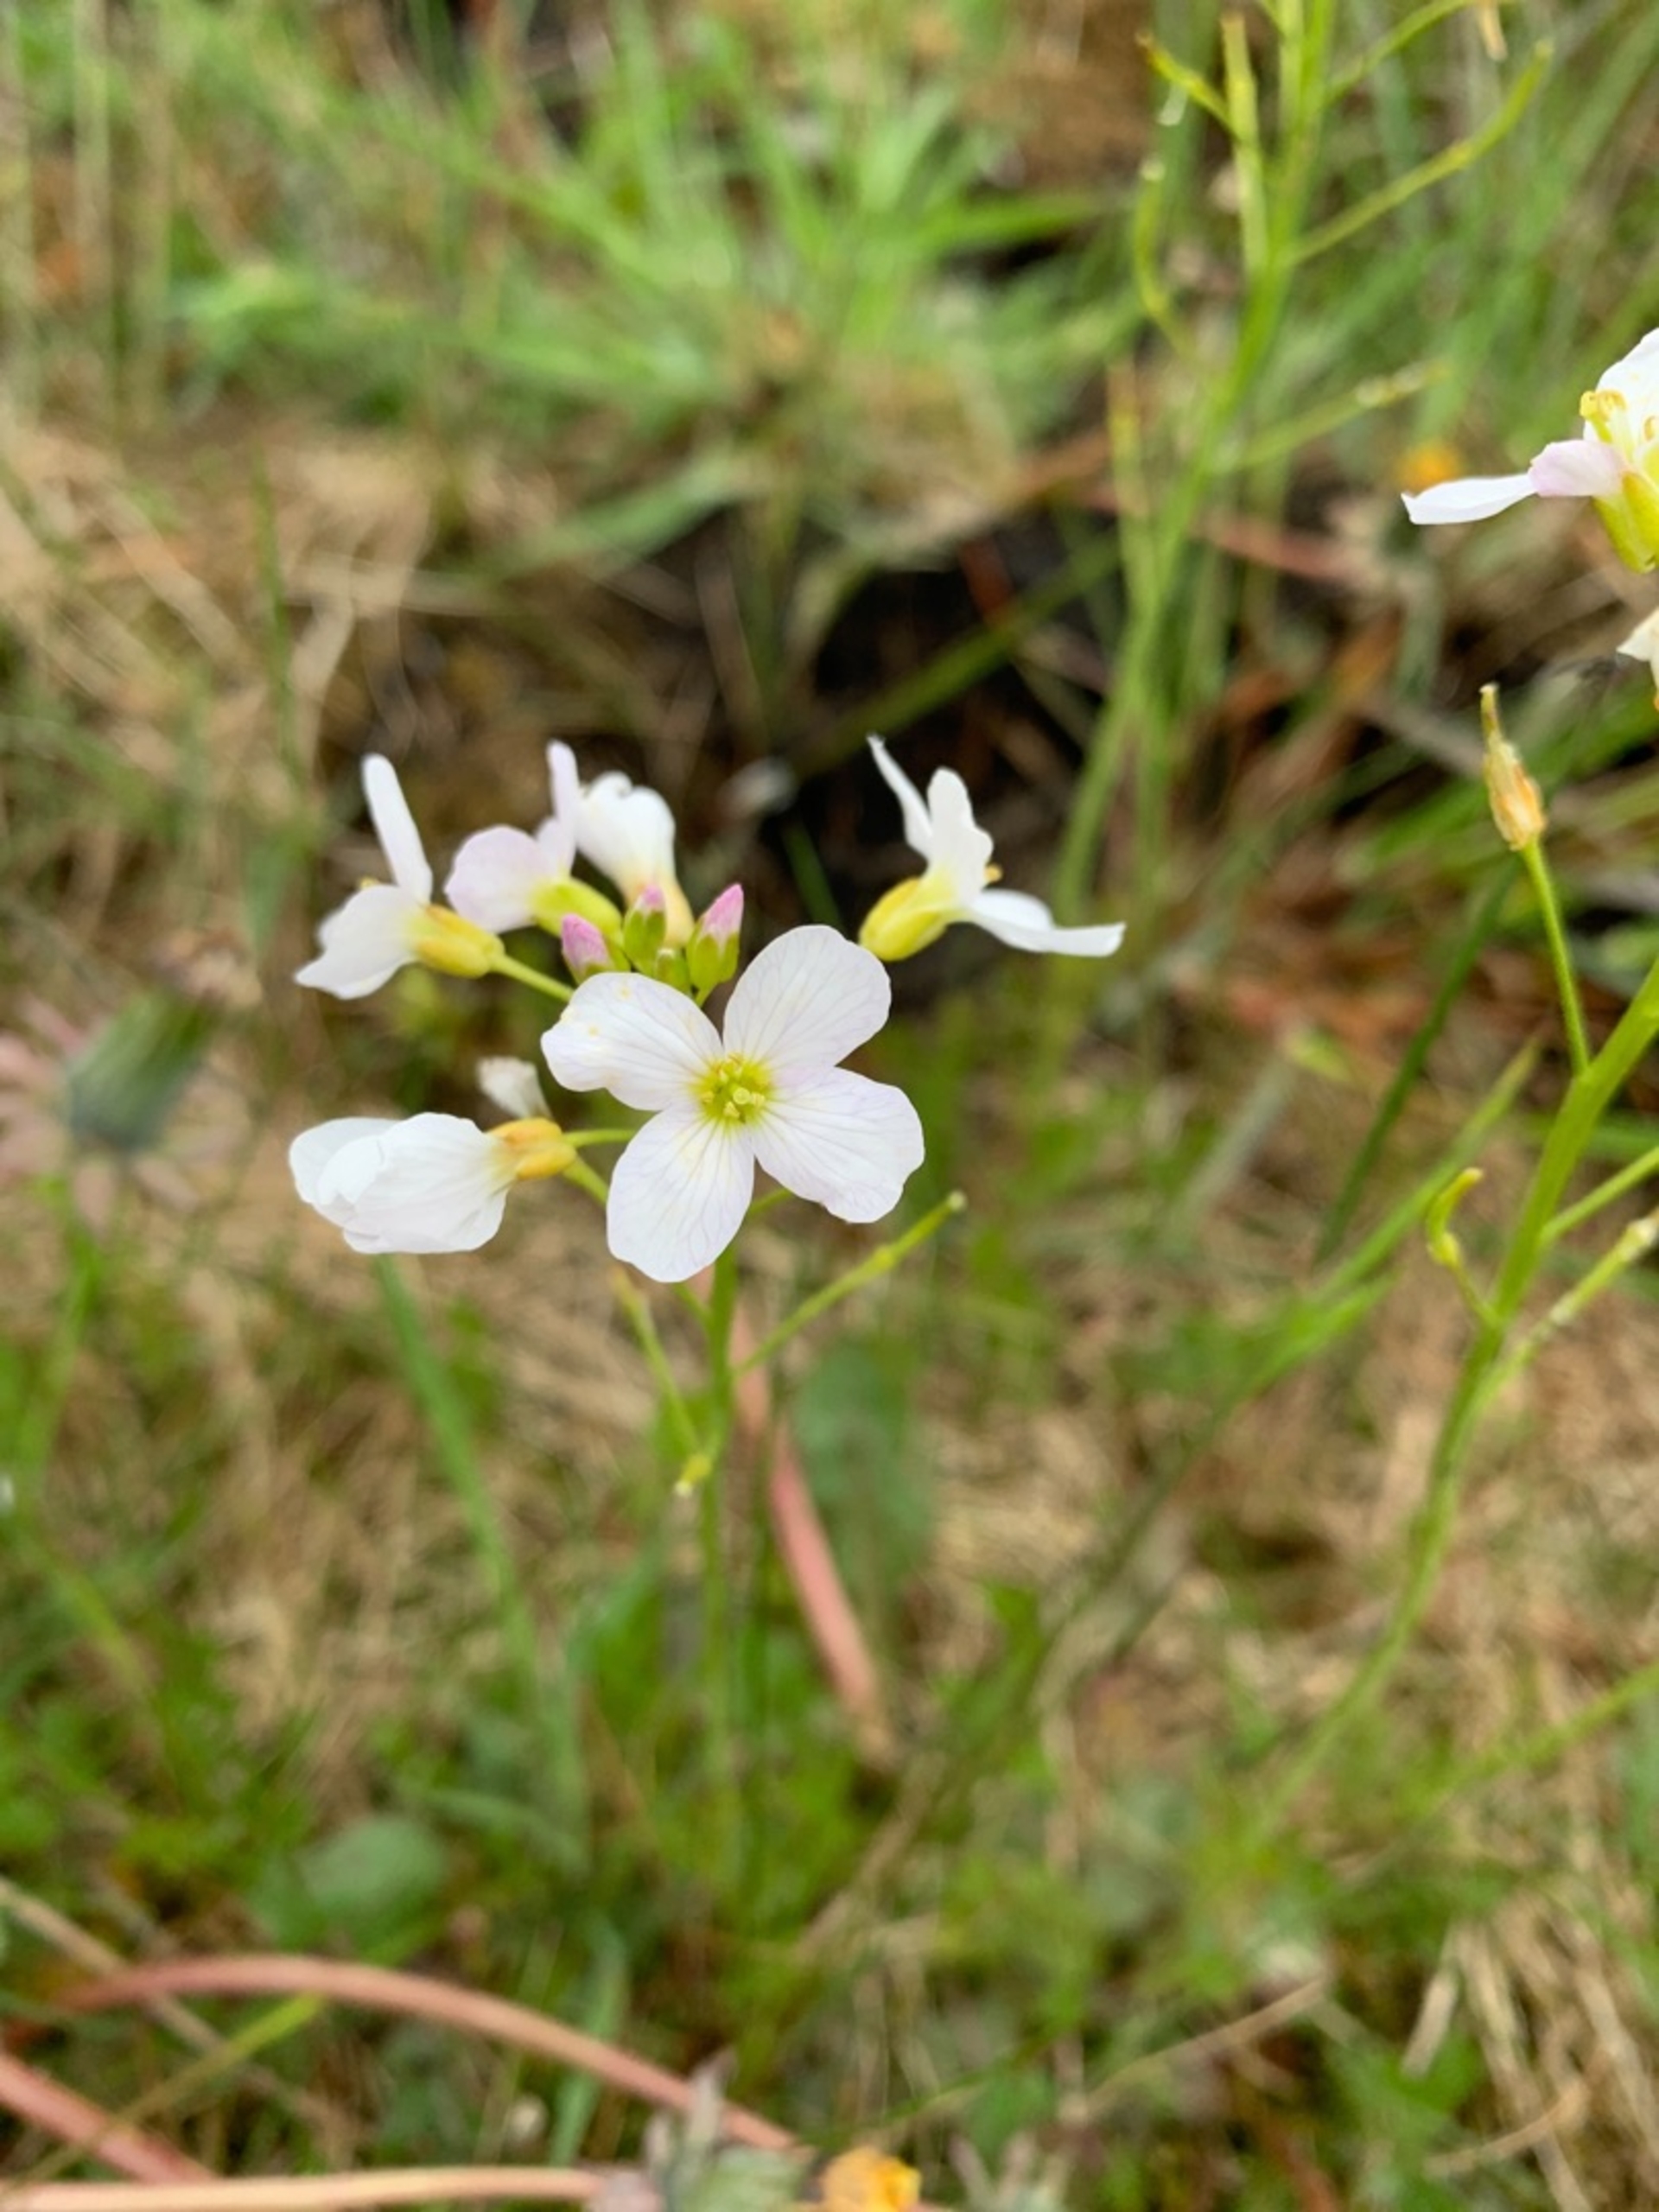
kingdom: Plantae
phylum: Tracheophyta
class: Magnoliopsida
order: Brassicales
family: Brassicaceae
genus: Cardamine
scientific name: Cardamine pratensis
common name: Engkarse
